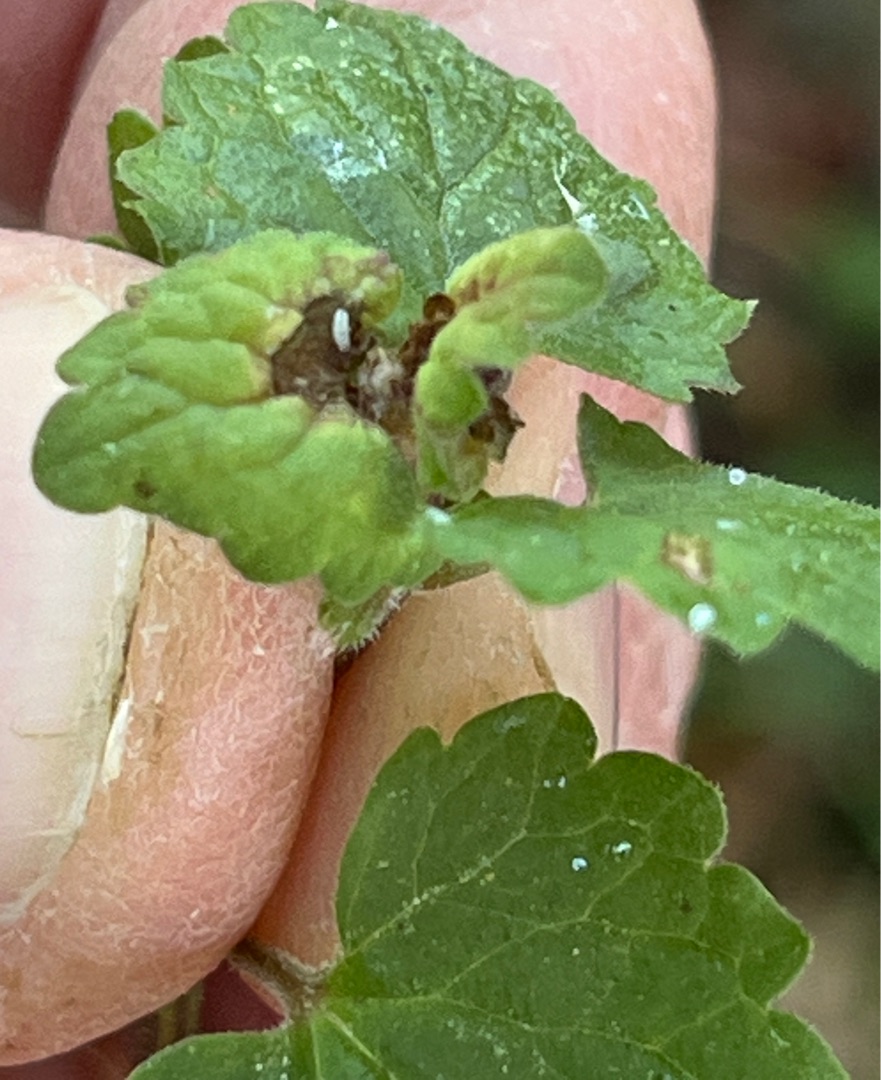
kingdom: Animalia
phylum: Arthropoda
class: Insecta
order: Diptera
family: Cecidomyiidae
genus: Dasineura
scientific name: Dasineura glechomae
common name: Korsknapskudgalmyg
